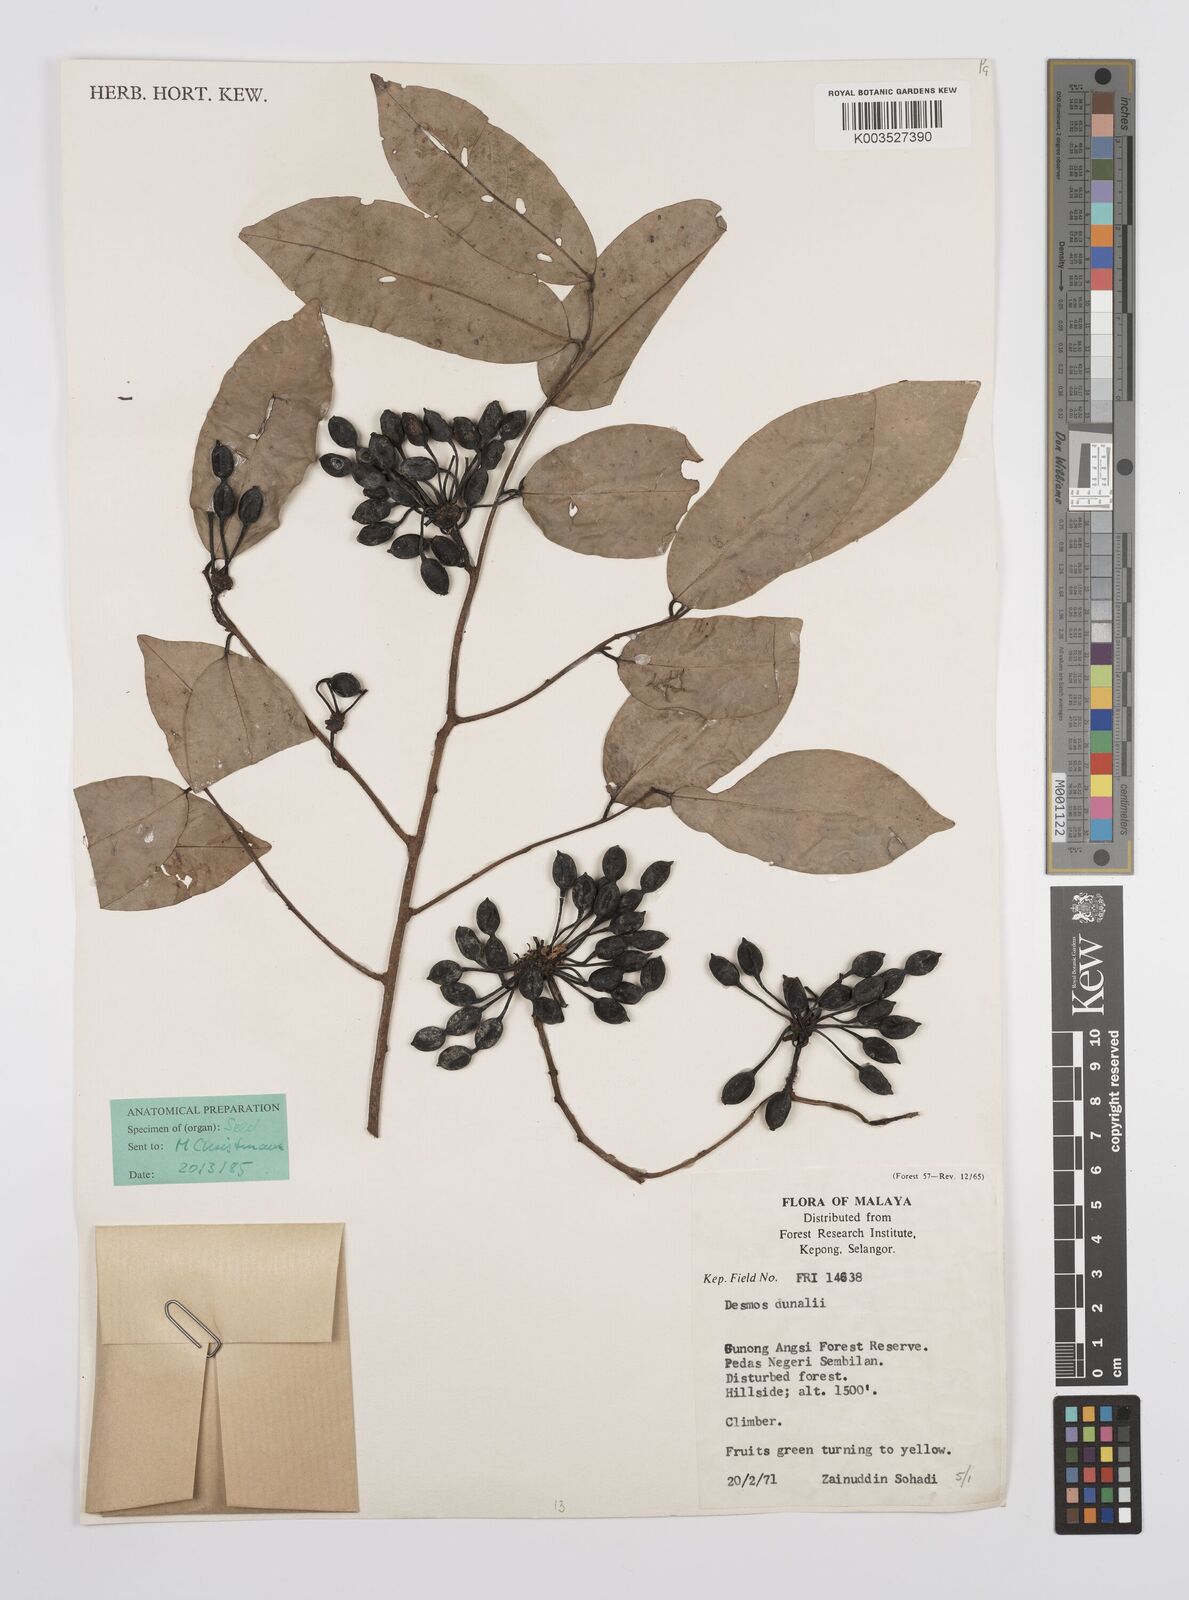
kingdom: Plantae
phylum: Tracheophyta
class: Magnoliopsida
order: Magnoliales
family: Annonaceae
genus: Desmos
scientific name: Desmos dunalii
